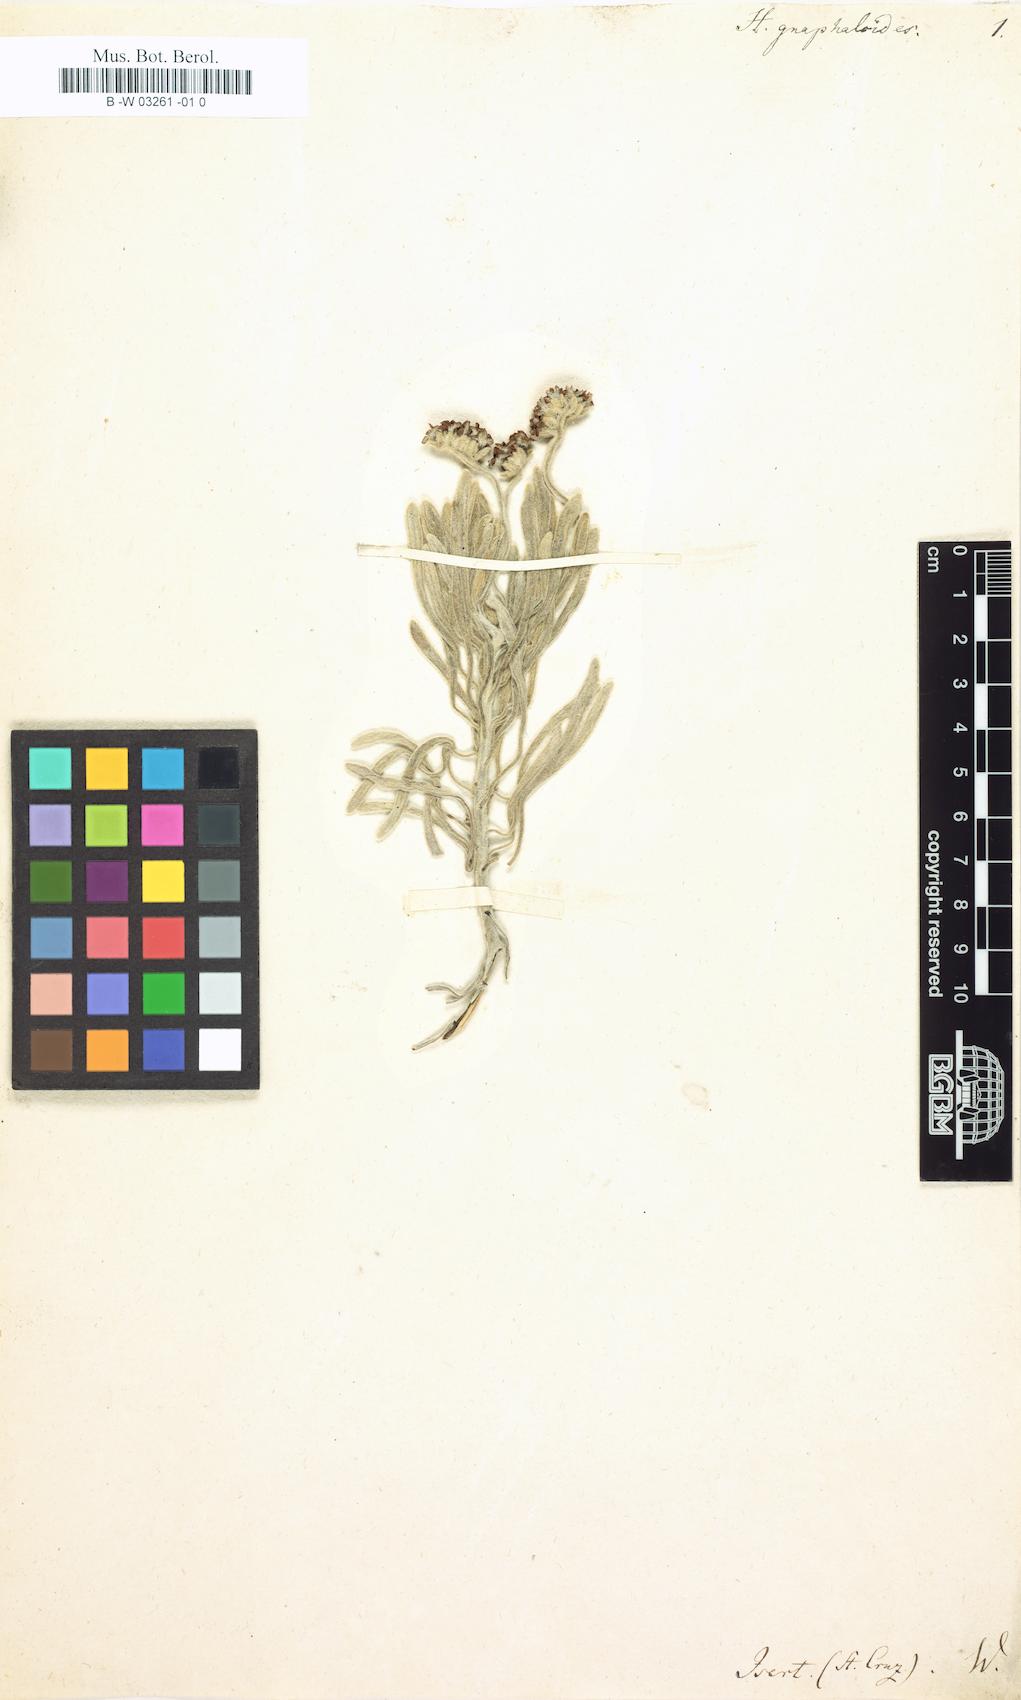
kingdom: Plantae
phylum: Tracheophyta
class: Magnoliopsida
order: Boraginales
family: Heliotropiaceae
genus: Tournefortia
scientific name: Tournefortia gnaphalodes
